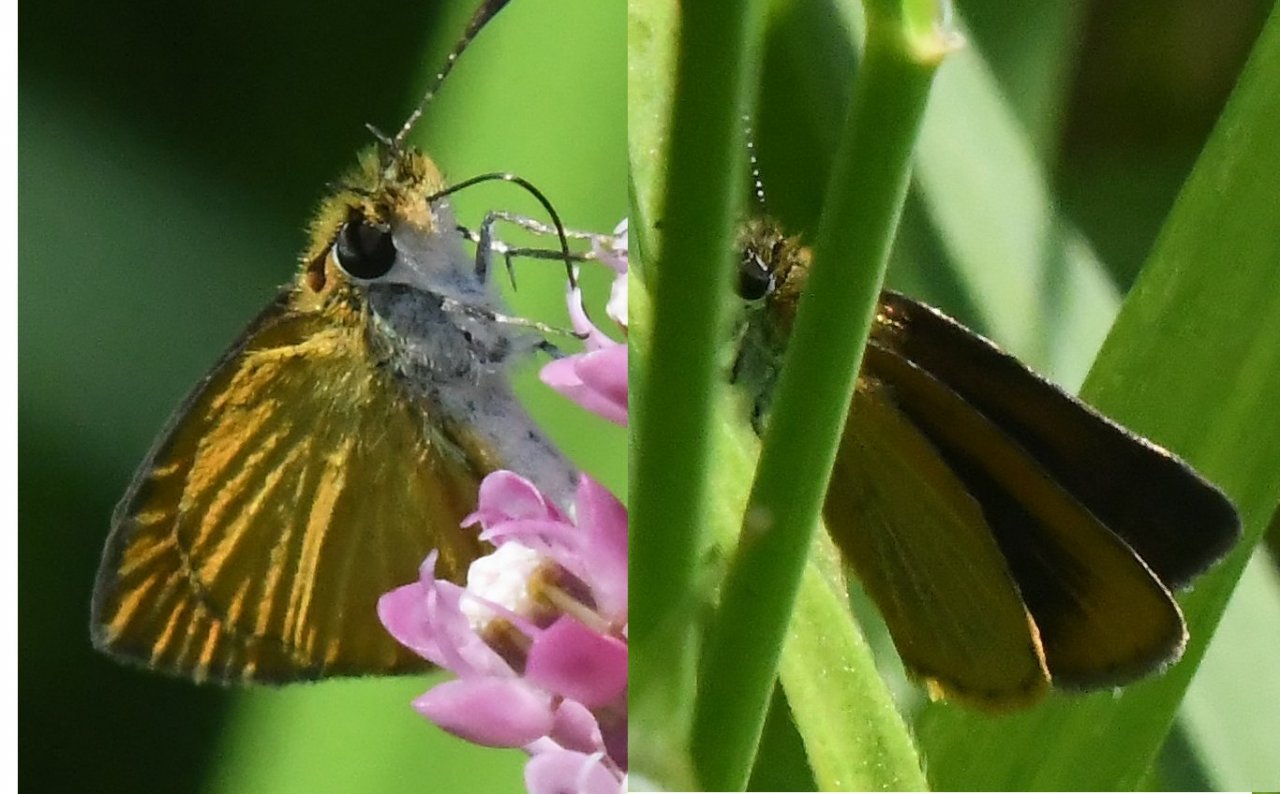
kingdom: Animalia
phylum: Arthropoda
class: Insecta
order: Lepidoptera
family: Hesperiidae
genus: Ancyloxypha
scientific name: Ancyloxypha numitor
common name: Least Skipper
